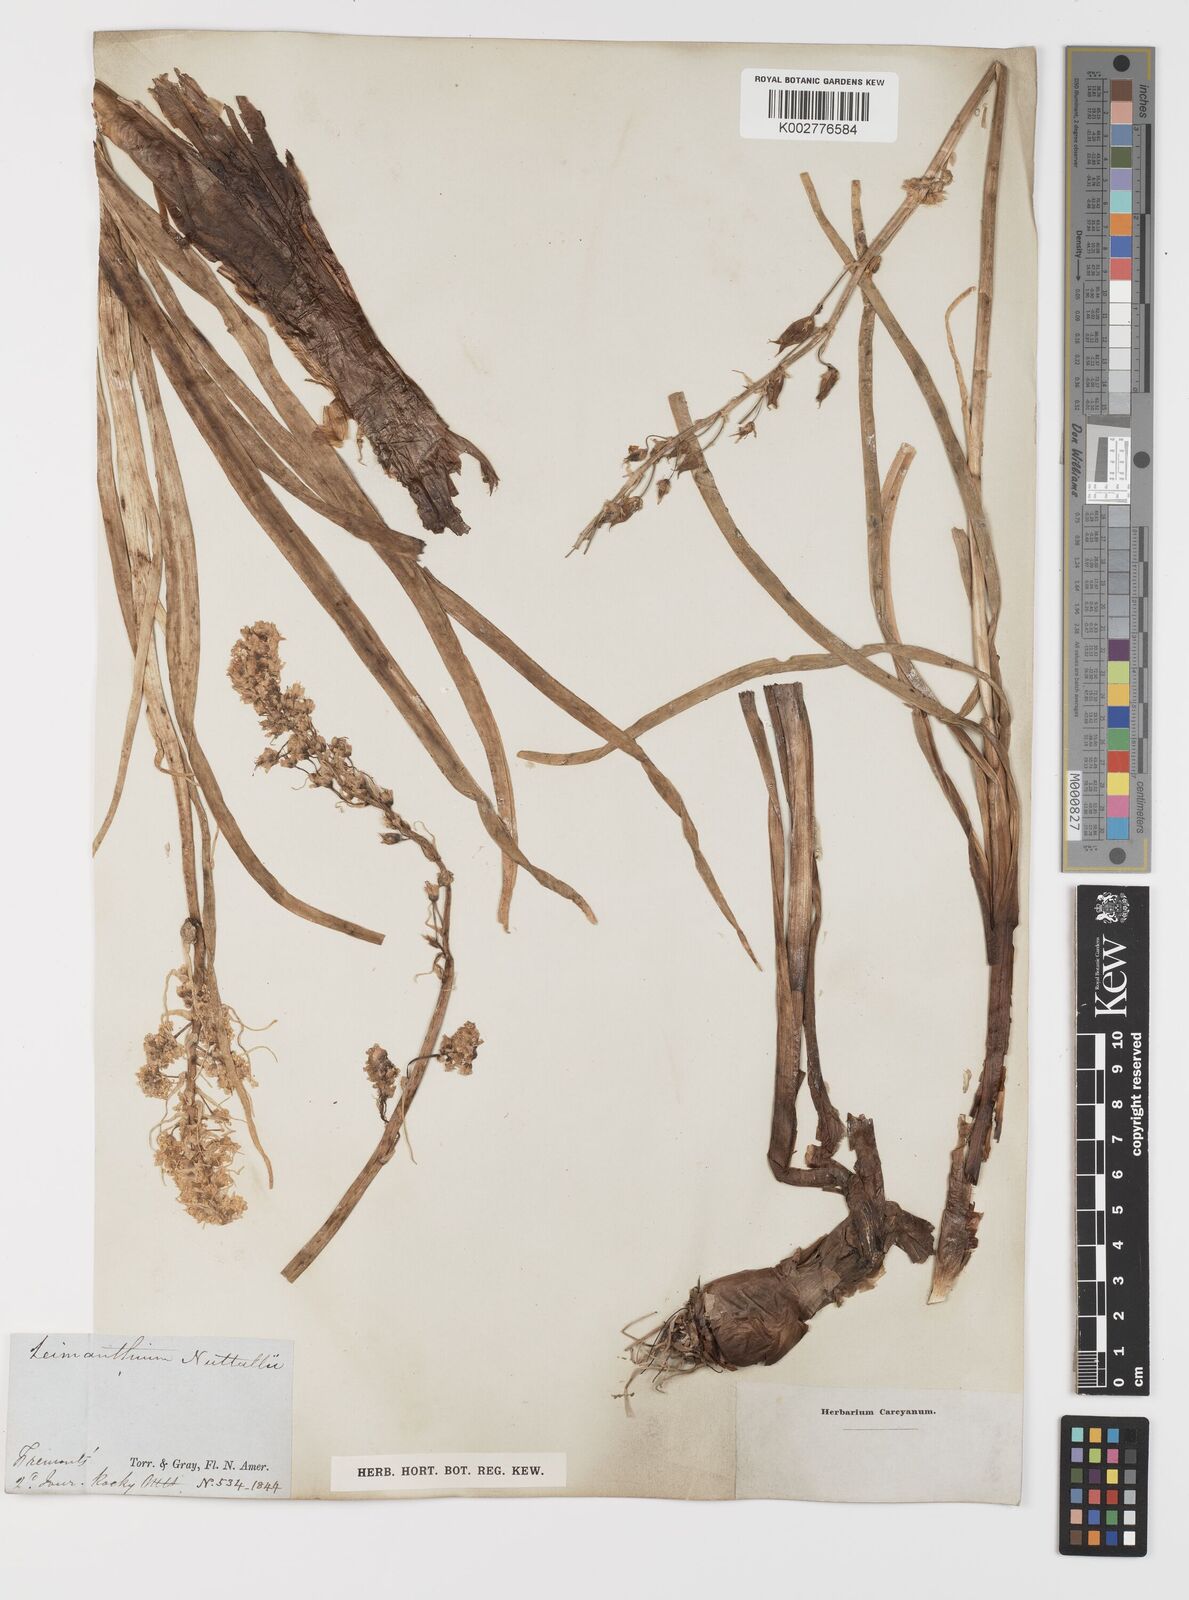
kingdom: Plantae
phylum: Tracheophyta
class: Liliopsida
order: Liliales
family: Melanthiaceae
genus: Toxicoscordion
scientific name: Toxicoscordion nuttallii
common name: Poison sego
